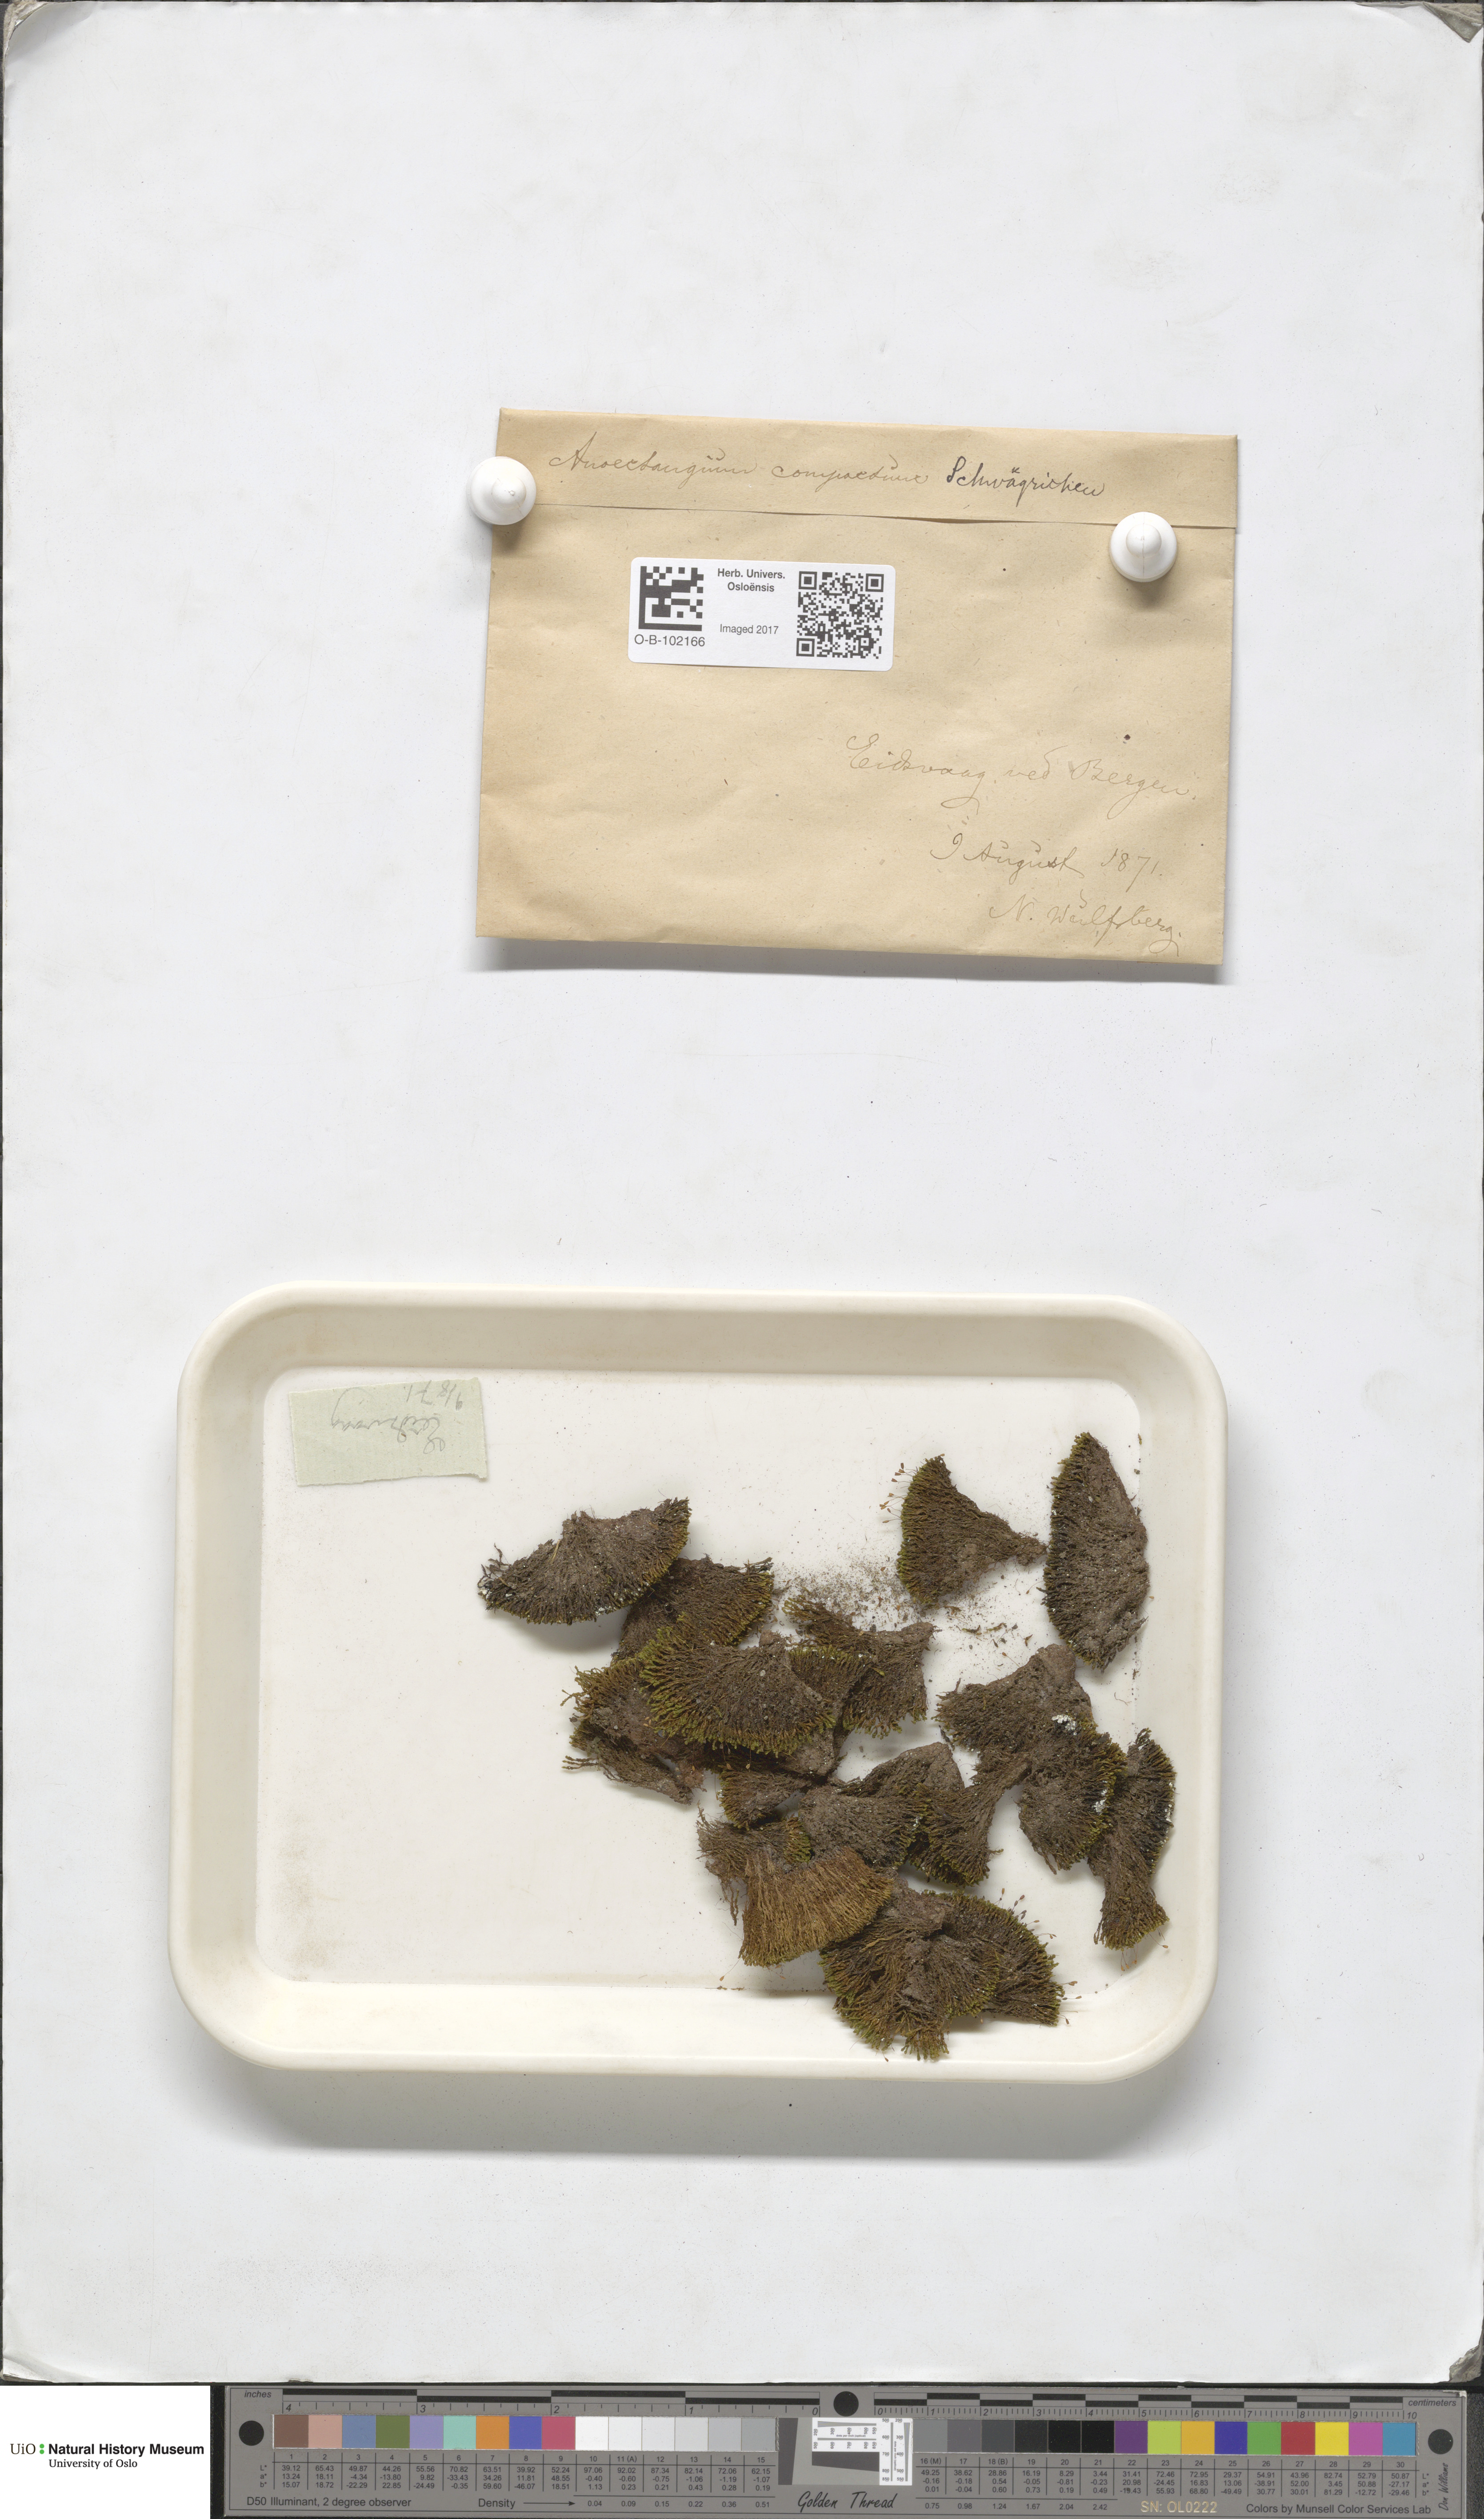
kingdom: Plantae
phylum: Bryophyta
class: Bryopsida
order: Pottiales
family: Pottiaceae
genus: Anoectangium
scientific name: Anoectangium aestivum
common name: Summer-moss
